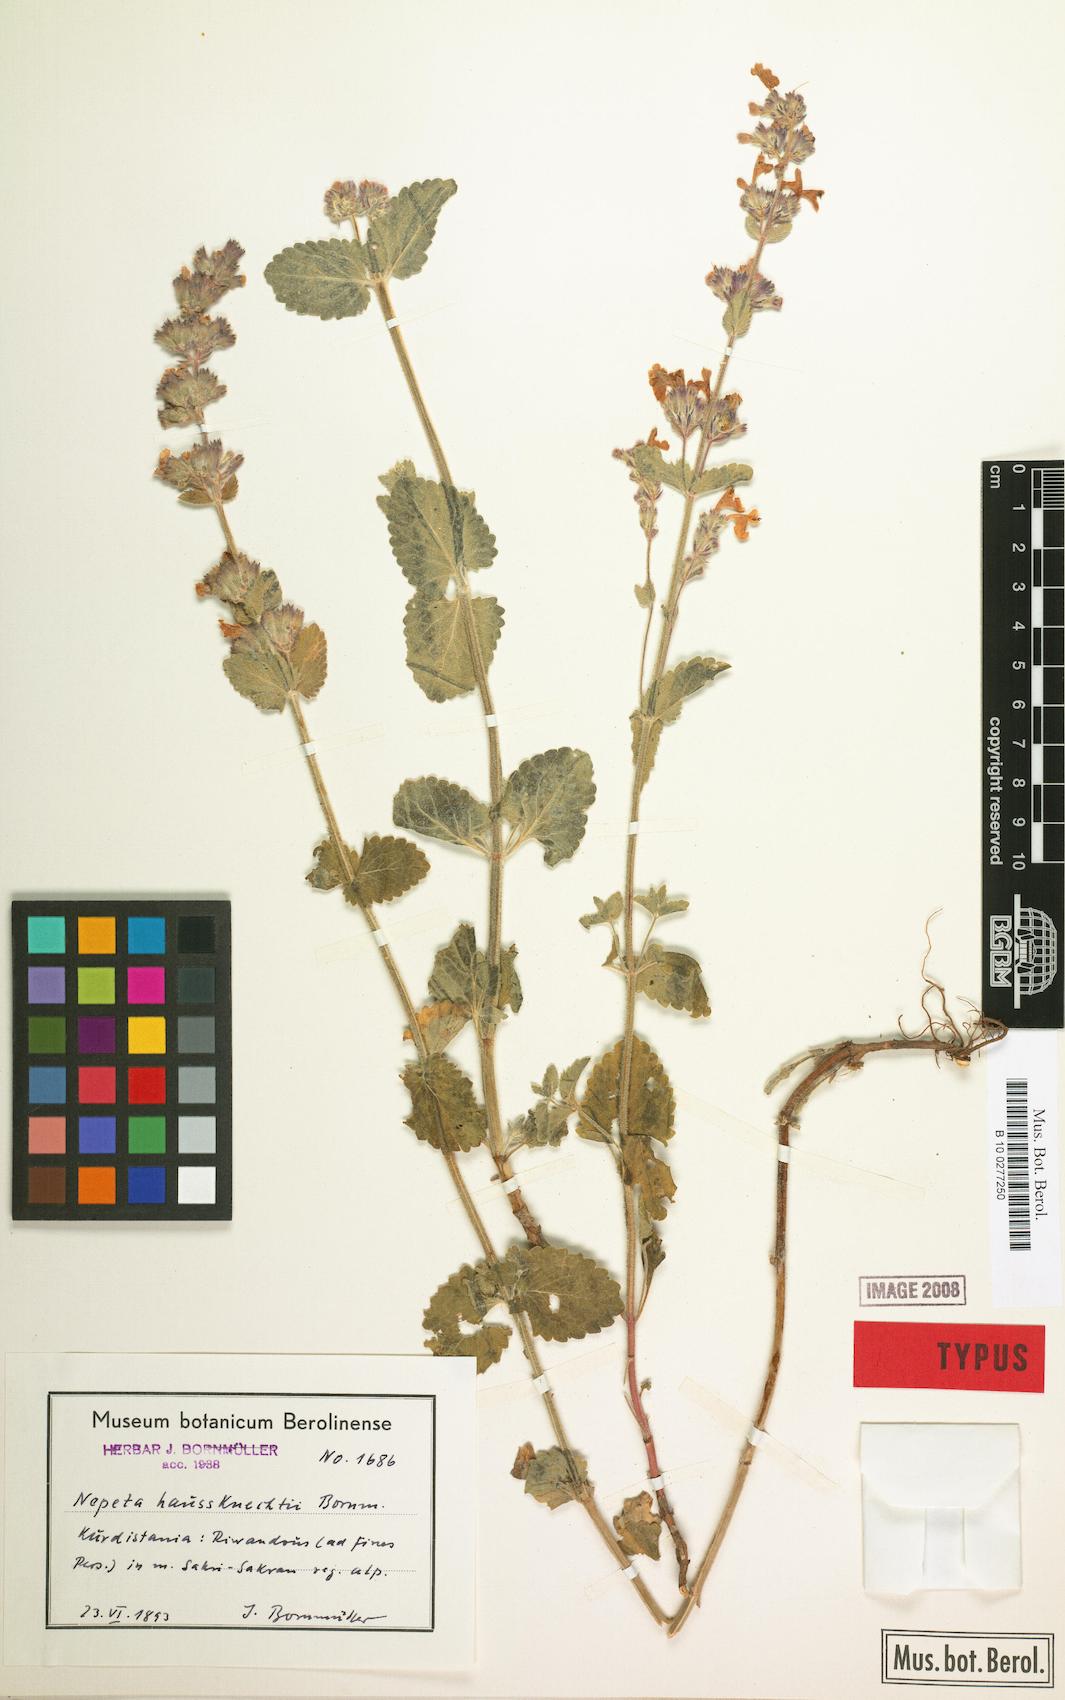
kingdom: Plantae
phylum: Tracheophyta
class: Magnoliopsida
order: Lamiales
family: Lamiaceae
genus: Nepeta
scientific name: Nepeta racemosa
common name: Raceme catnip
